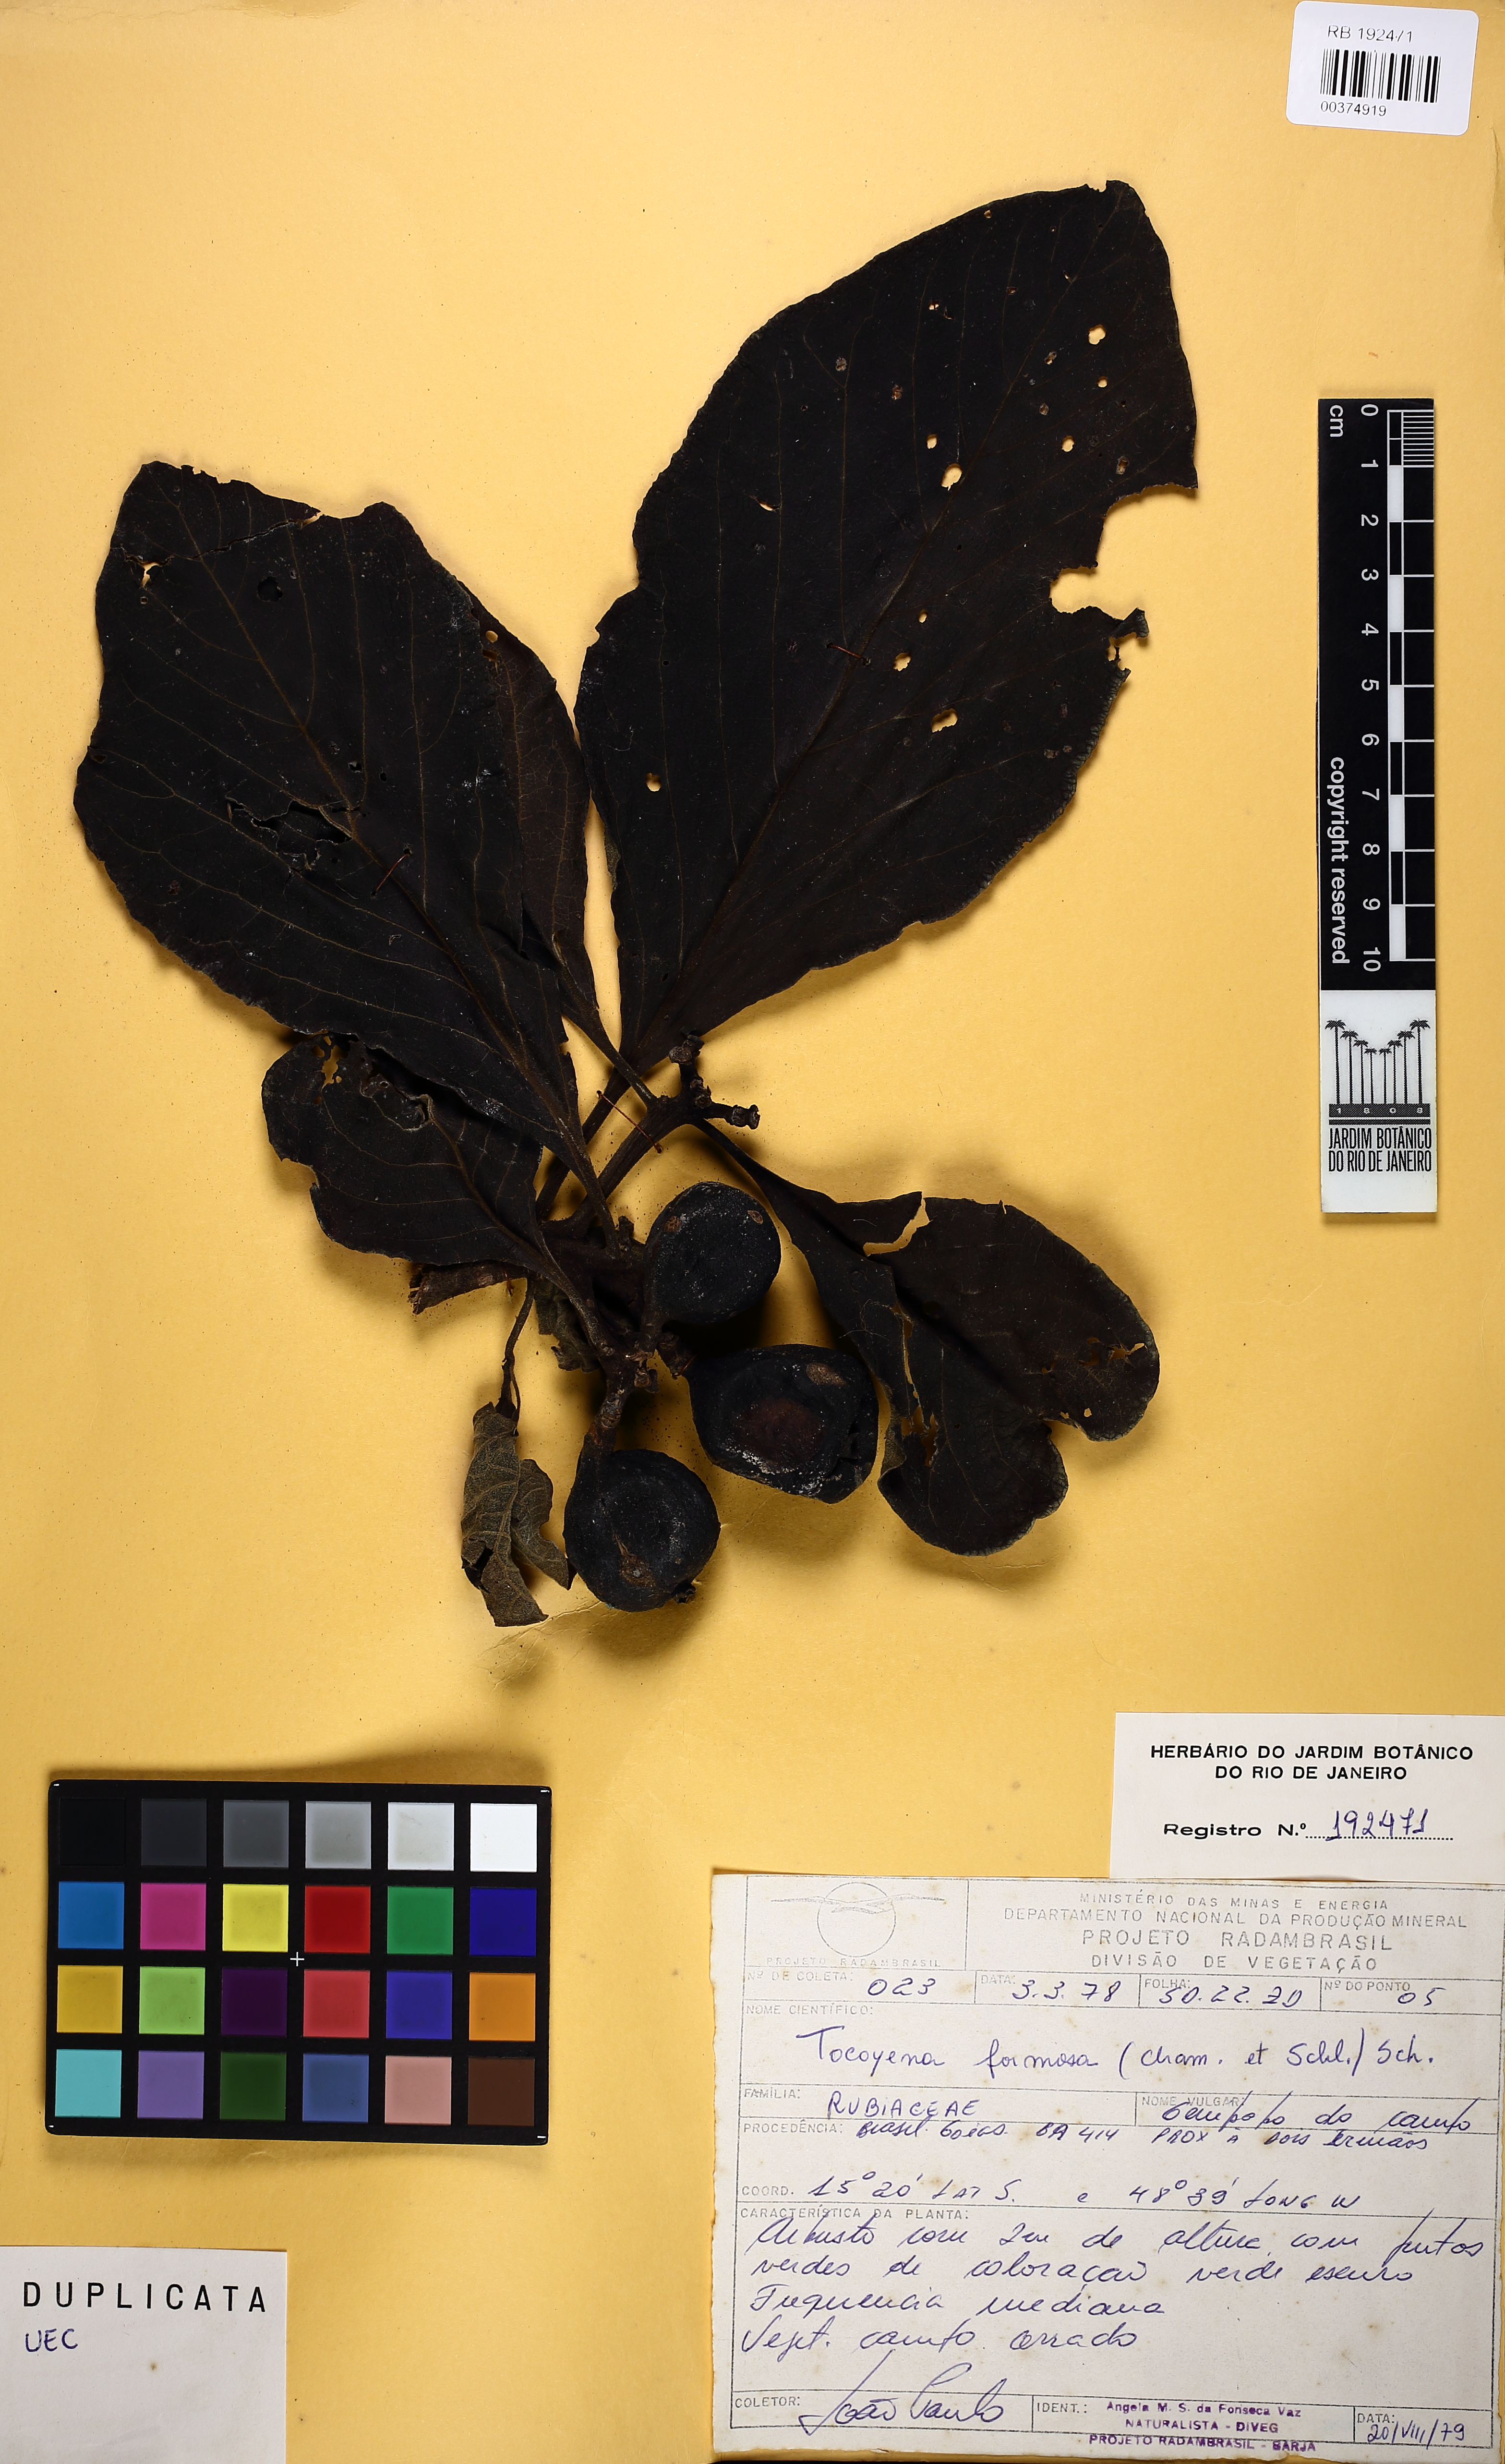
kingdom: Plantae
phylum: Tracheophyta
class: Magnoliopsida
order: Gentianales
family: Rubiaceae
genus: Tocoyena
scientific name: Tocoyena formosa
